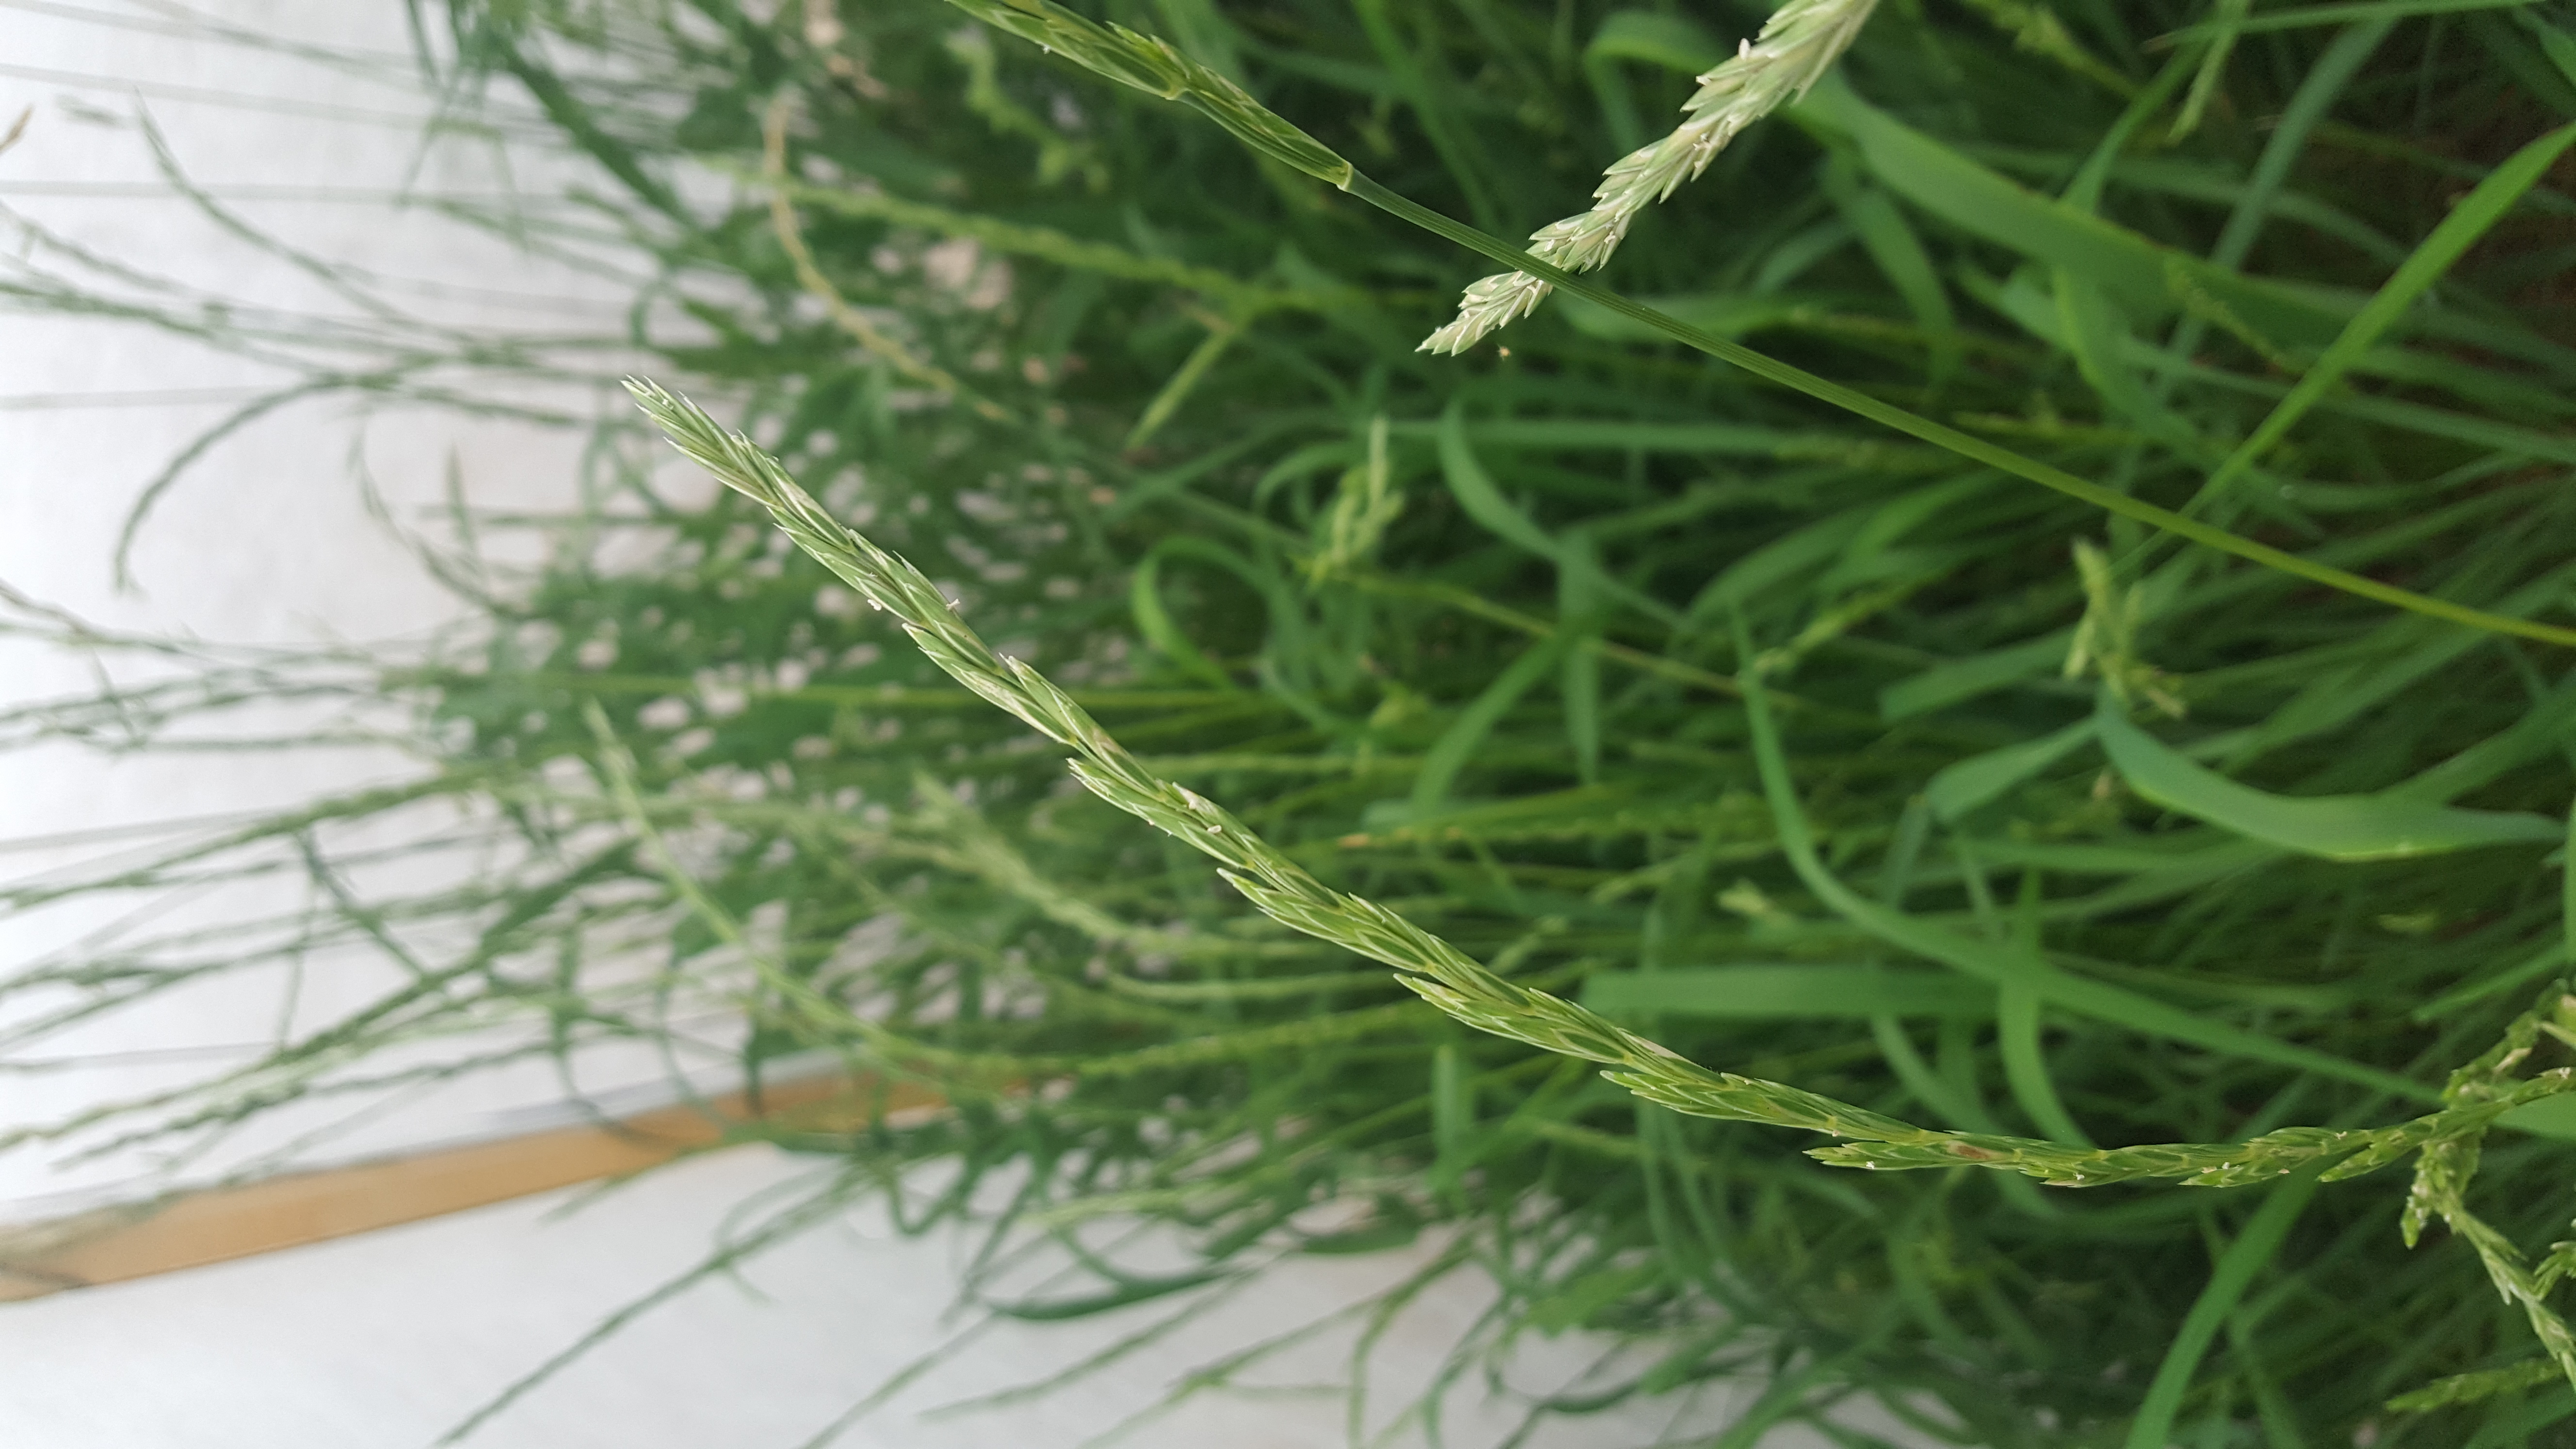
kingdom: Plantae
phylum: Tracheophyta
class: Liliopsida
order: Poales
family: Poaceae
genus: Elymus
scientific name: Elymus mutabilis
